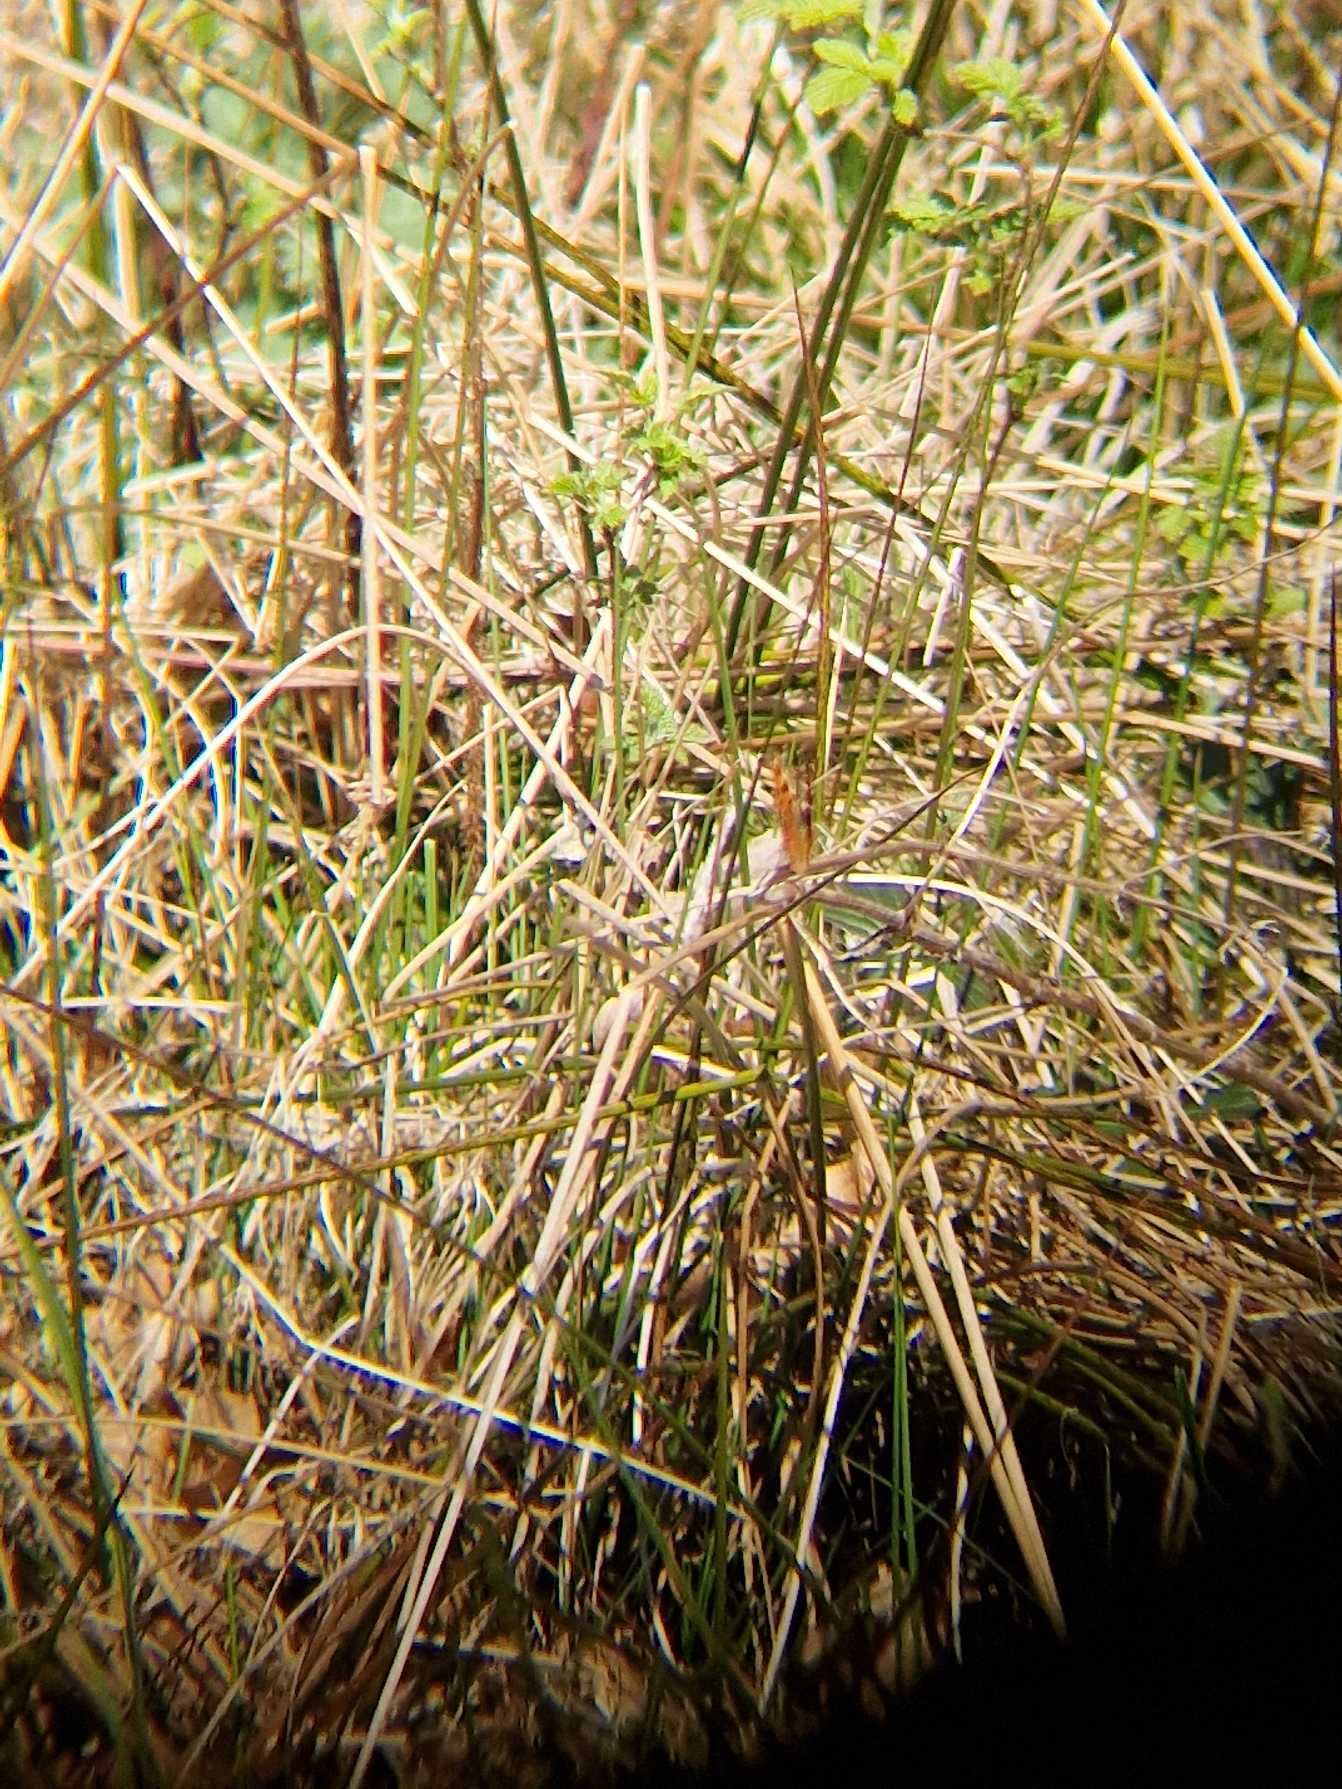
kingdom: Animalia
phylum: Arthropoda
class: Insecta
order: Lepidoptera
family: Nymphalidae
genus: Polygonia
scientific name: Polygonia c-album
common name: Det hvide C
